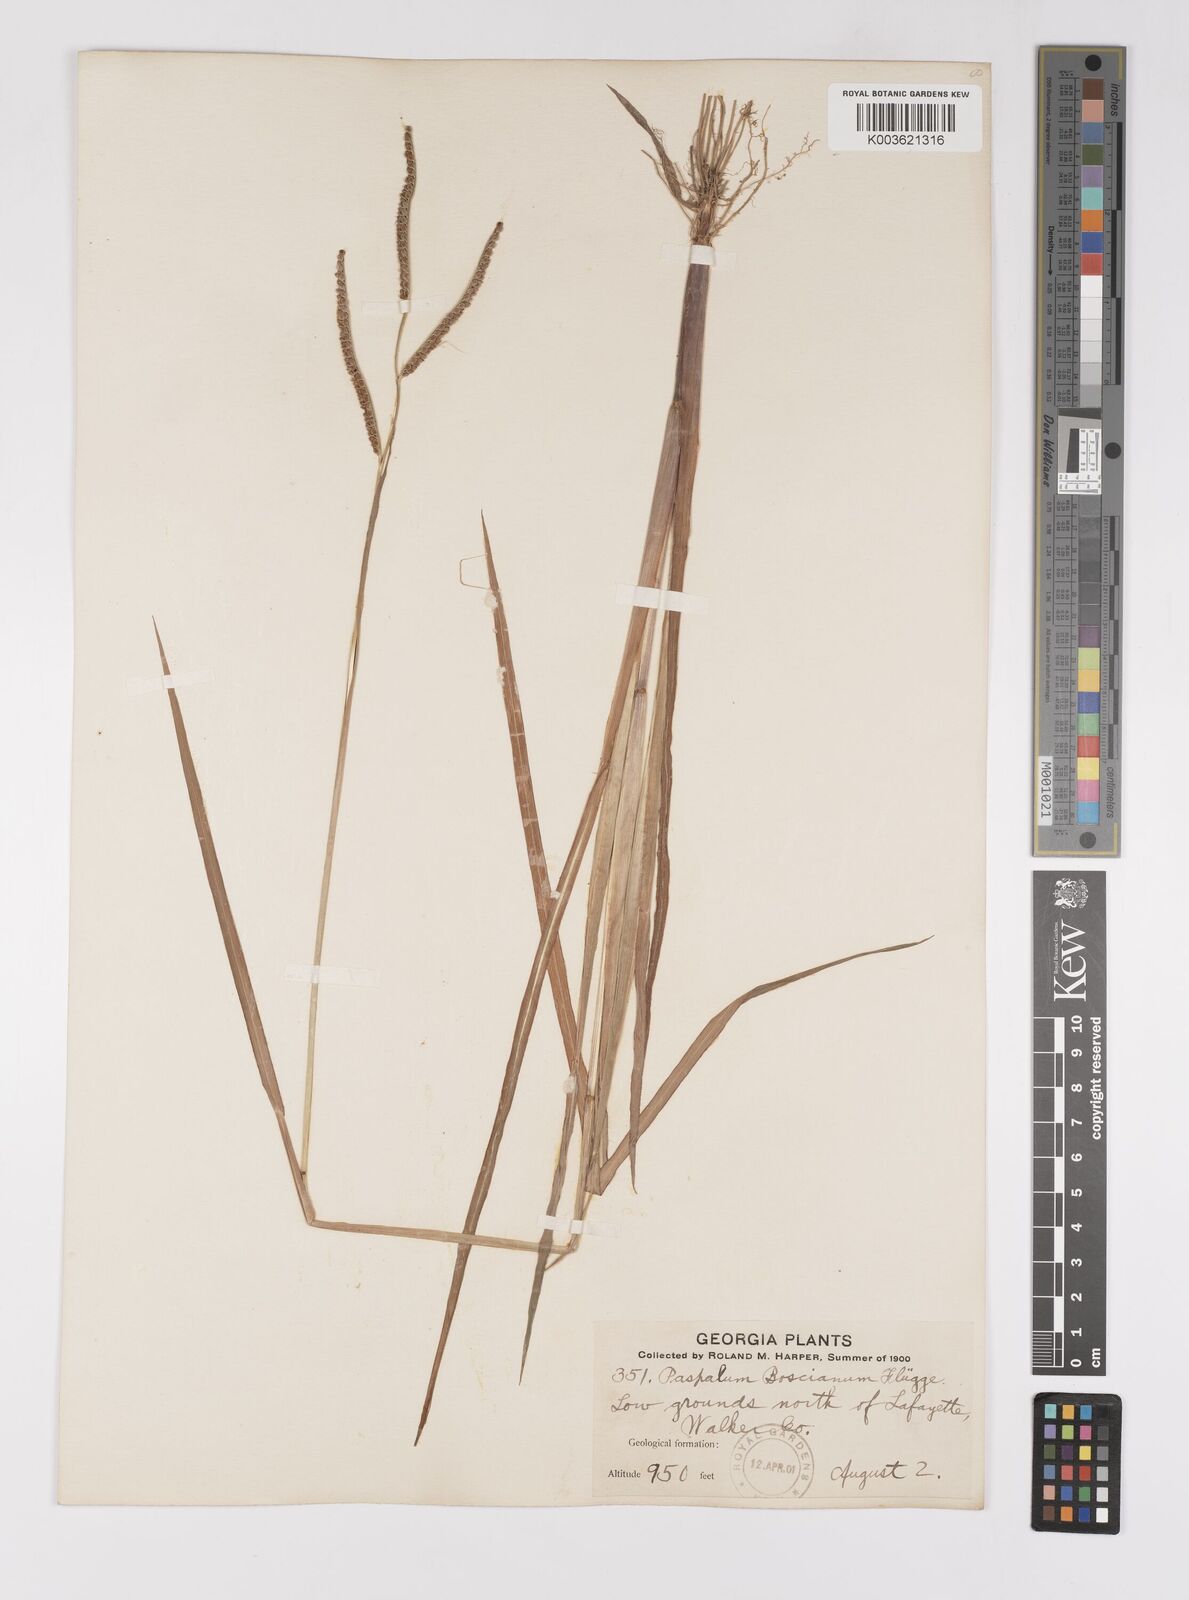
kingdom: Plantae
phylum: Tracheophyta
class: Liliopsida
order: Poales
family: Poaceae
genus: Paspalum
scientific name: Paspalum scrobiculatum
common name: Kodo millet
